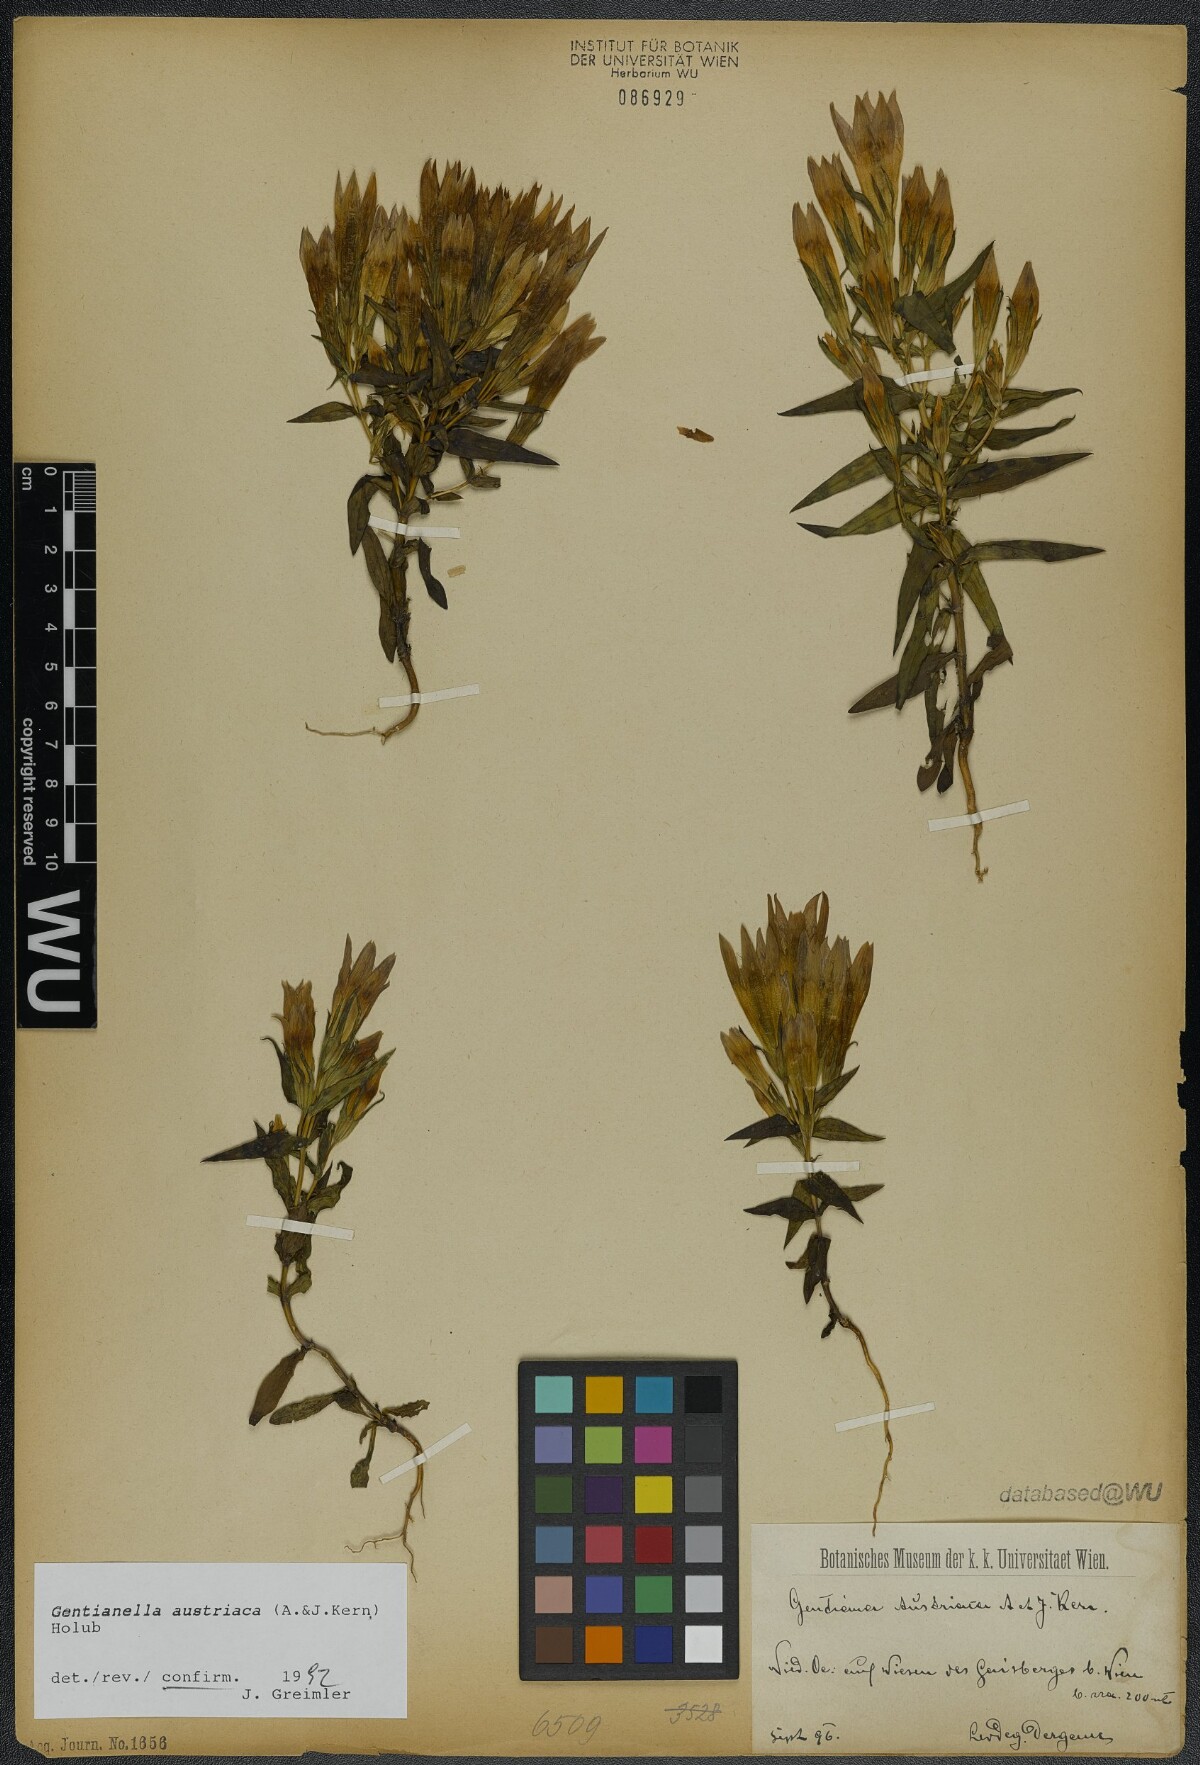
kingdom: Plantae
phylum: Tracheophyta
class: Magnoliopsida
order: Gentianales
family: Gentianaceae
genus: Gentianella
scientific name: Gentianella austriaca
